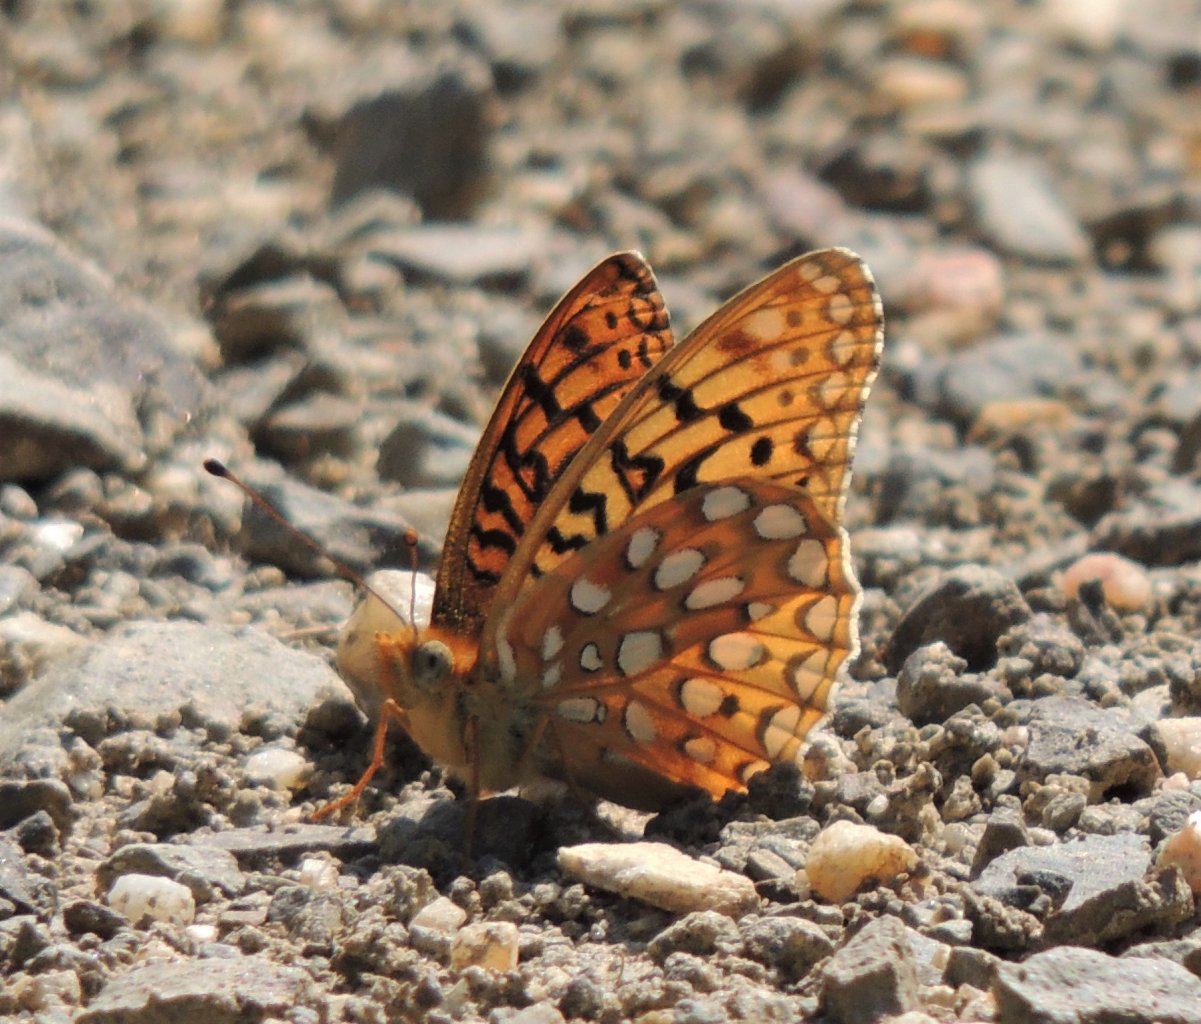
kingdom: Animalia
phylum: Arthropoda
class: Insecta
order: Lepidoptera
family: Nymphalidae
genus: Speyeria
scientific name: Speyeria zerene
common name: Zerene Fritillary
